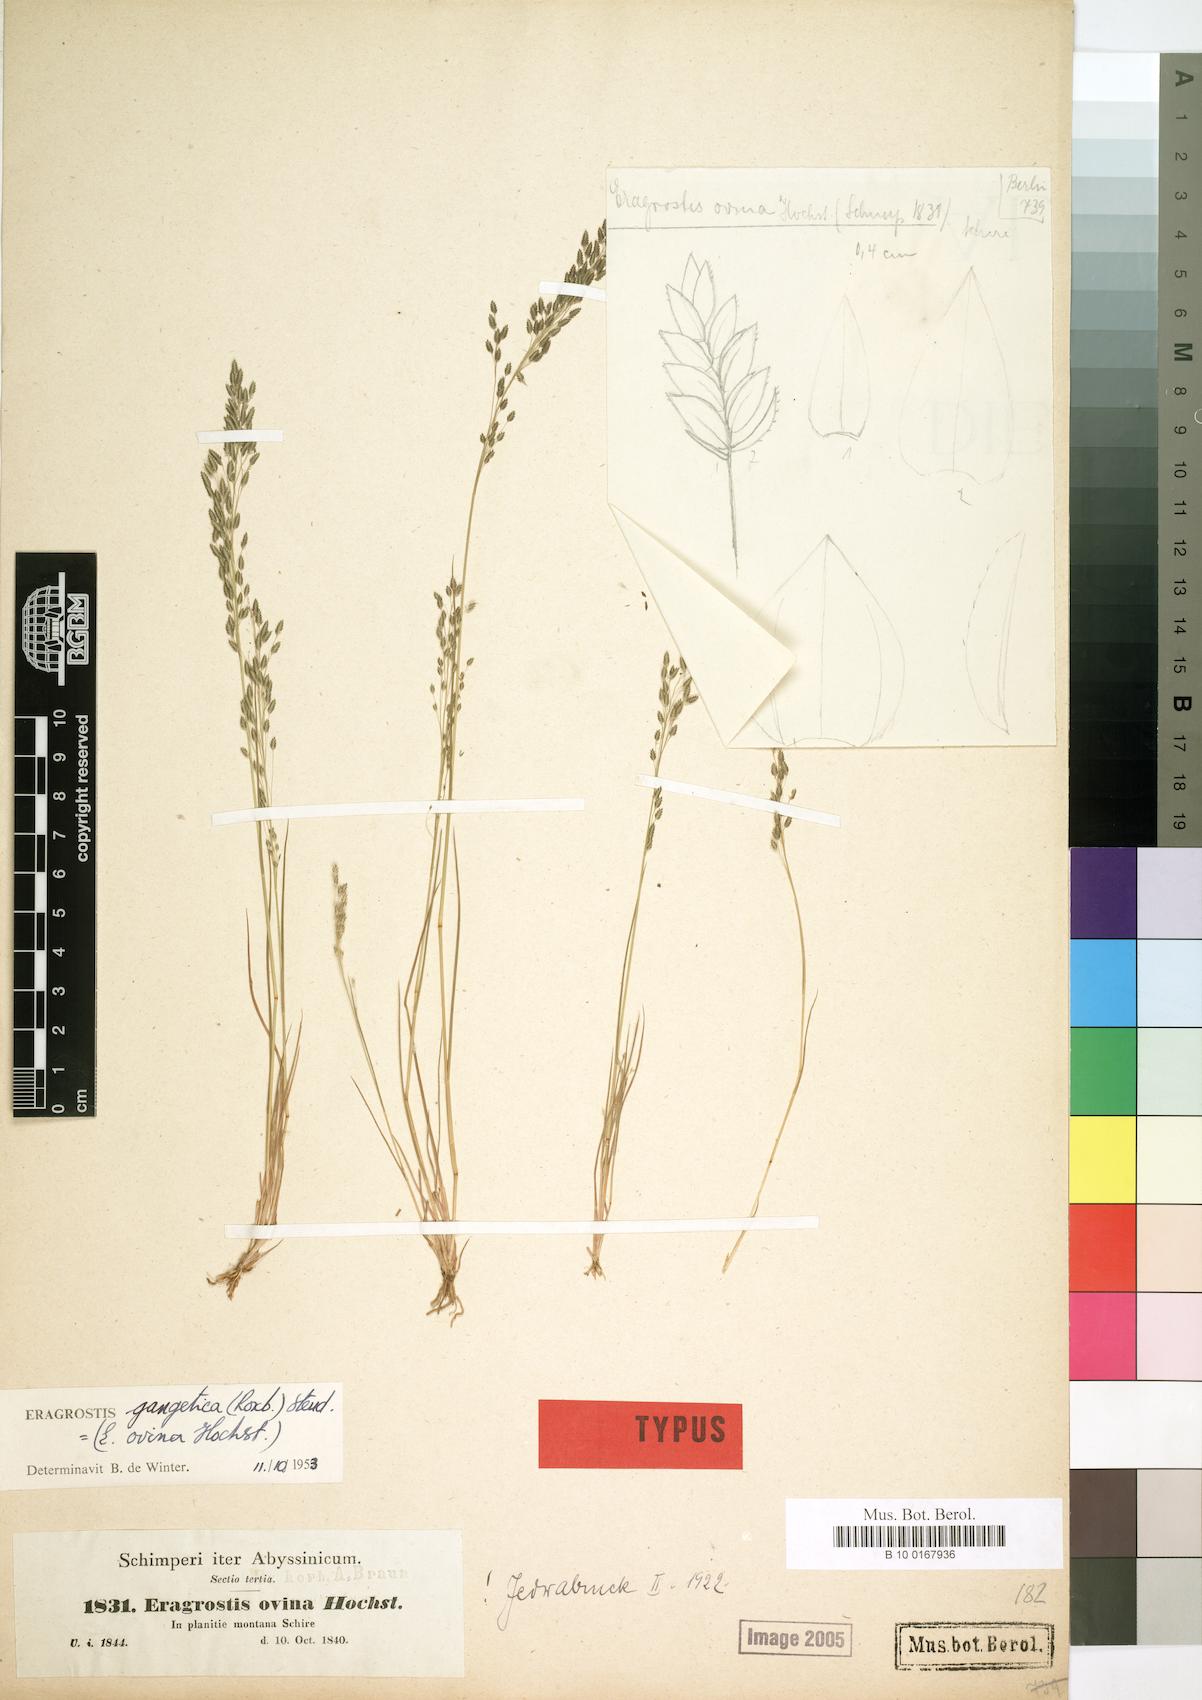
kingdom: Plantae
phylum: Tracheophyta
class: Liliopsida
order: Poales
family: Poaceae
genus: Eragrostis
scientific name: Eragrostis gangetica
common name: Slimflower lovegrass
